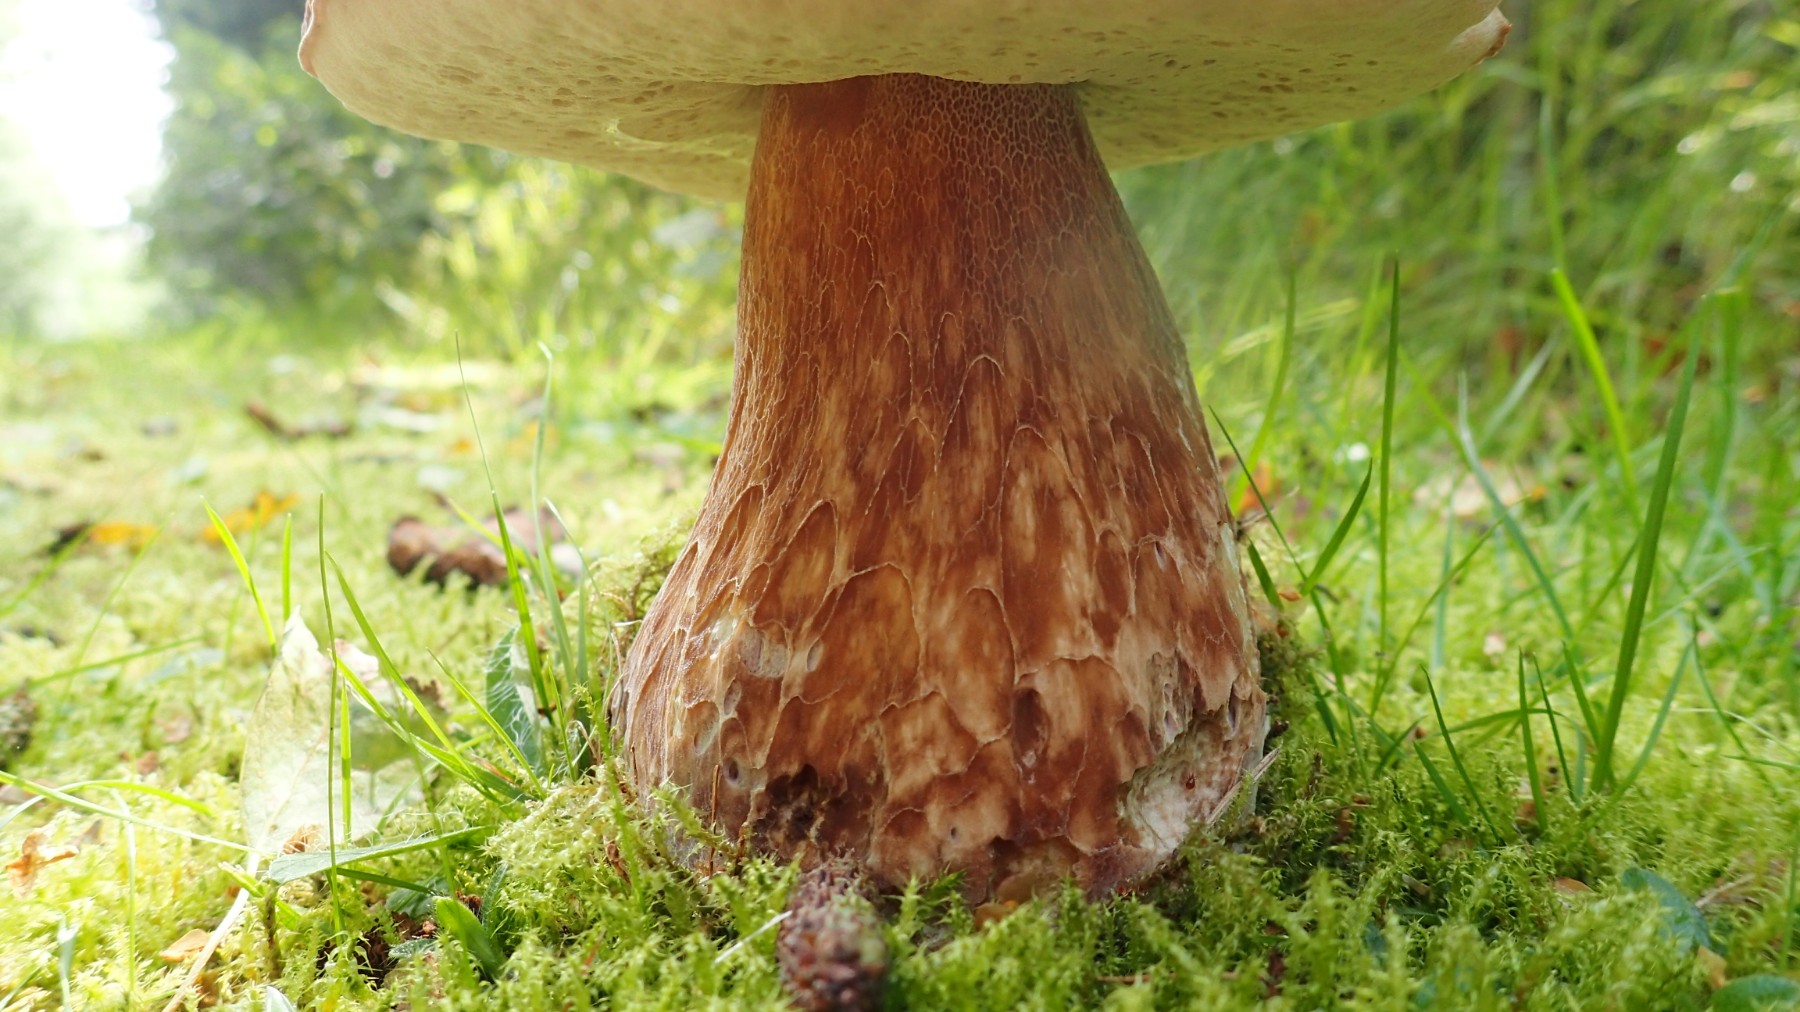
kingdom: Fungi
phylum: Basidiomycota
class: Agaricomycetes
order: Boletales
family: Boletaceae
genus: Boletus
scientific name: Boletus edulis
